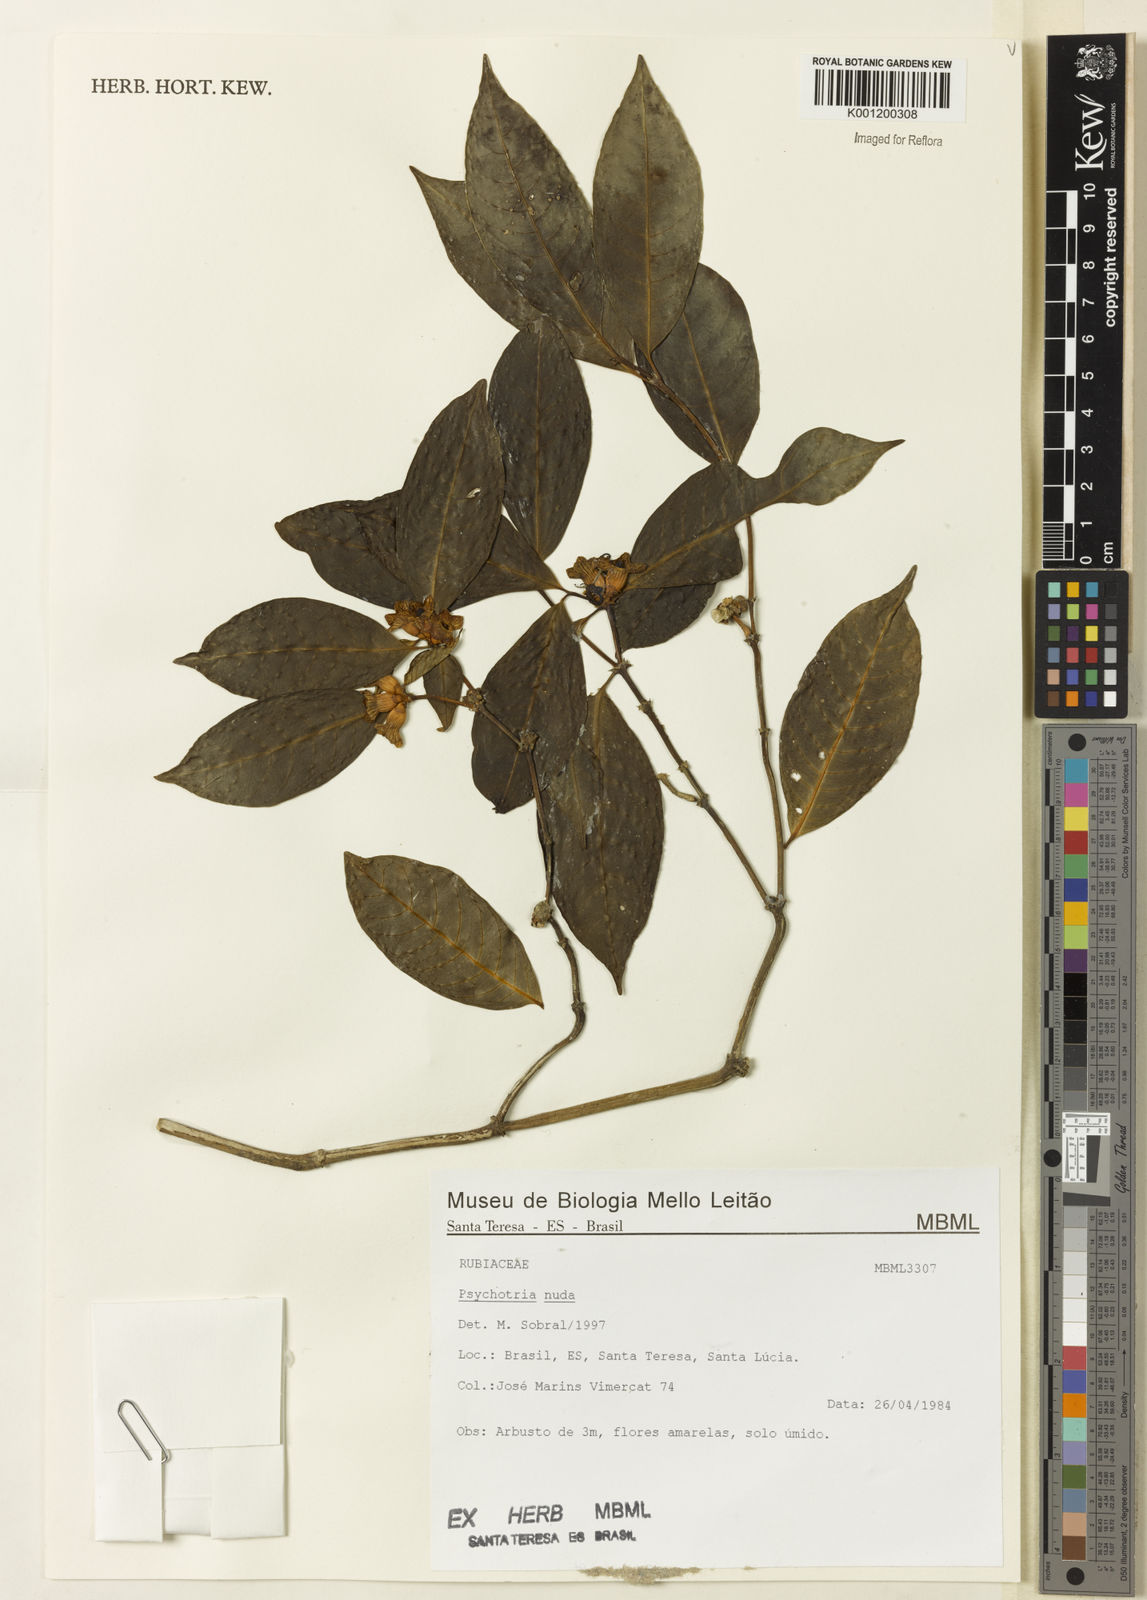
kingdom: Plantae
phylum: Tracheophyta
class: Magnoliopsida
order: Gentianales
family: Rubiaceae
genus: Psychotria
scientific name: Psychotria nuda
